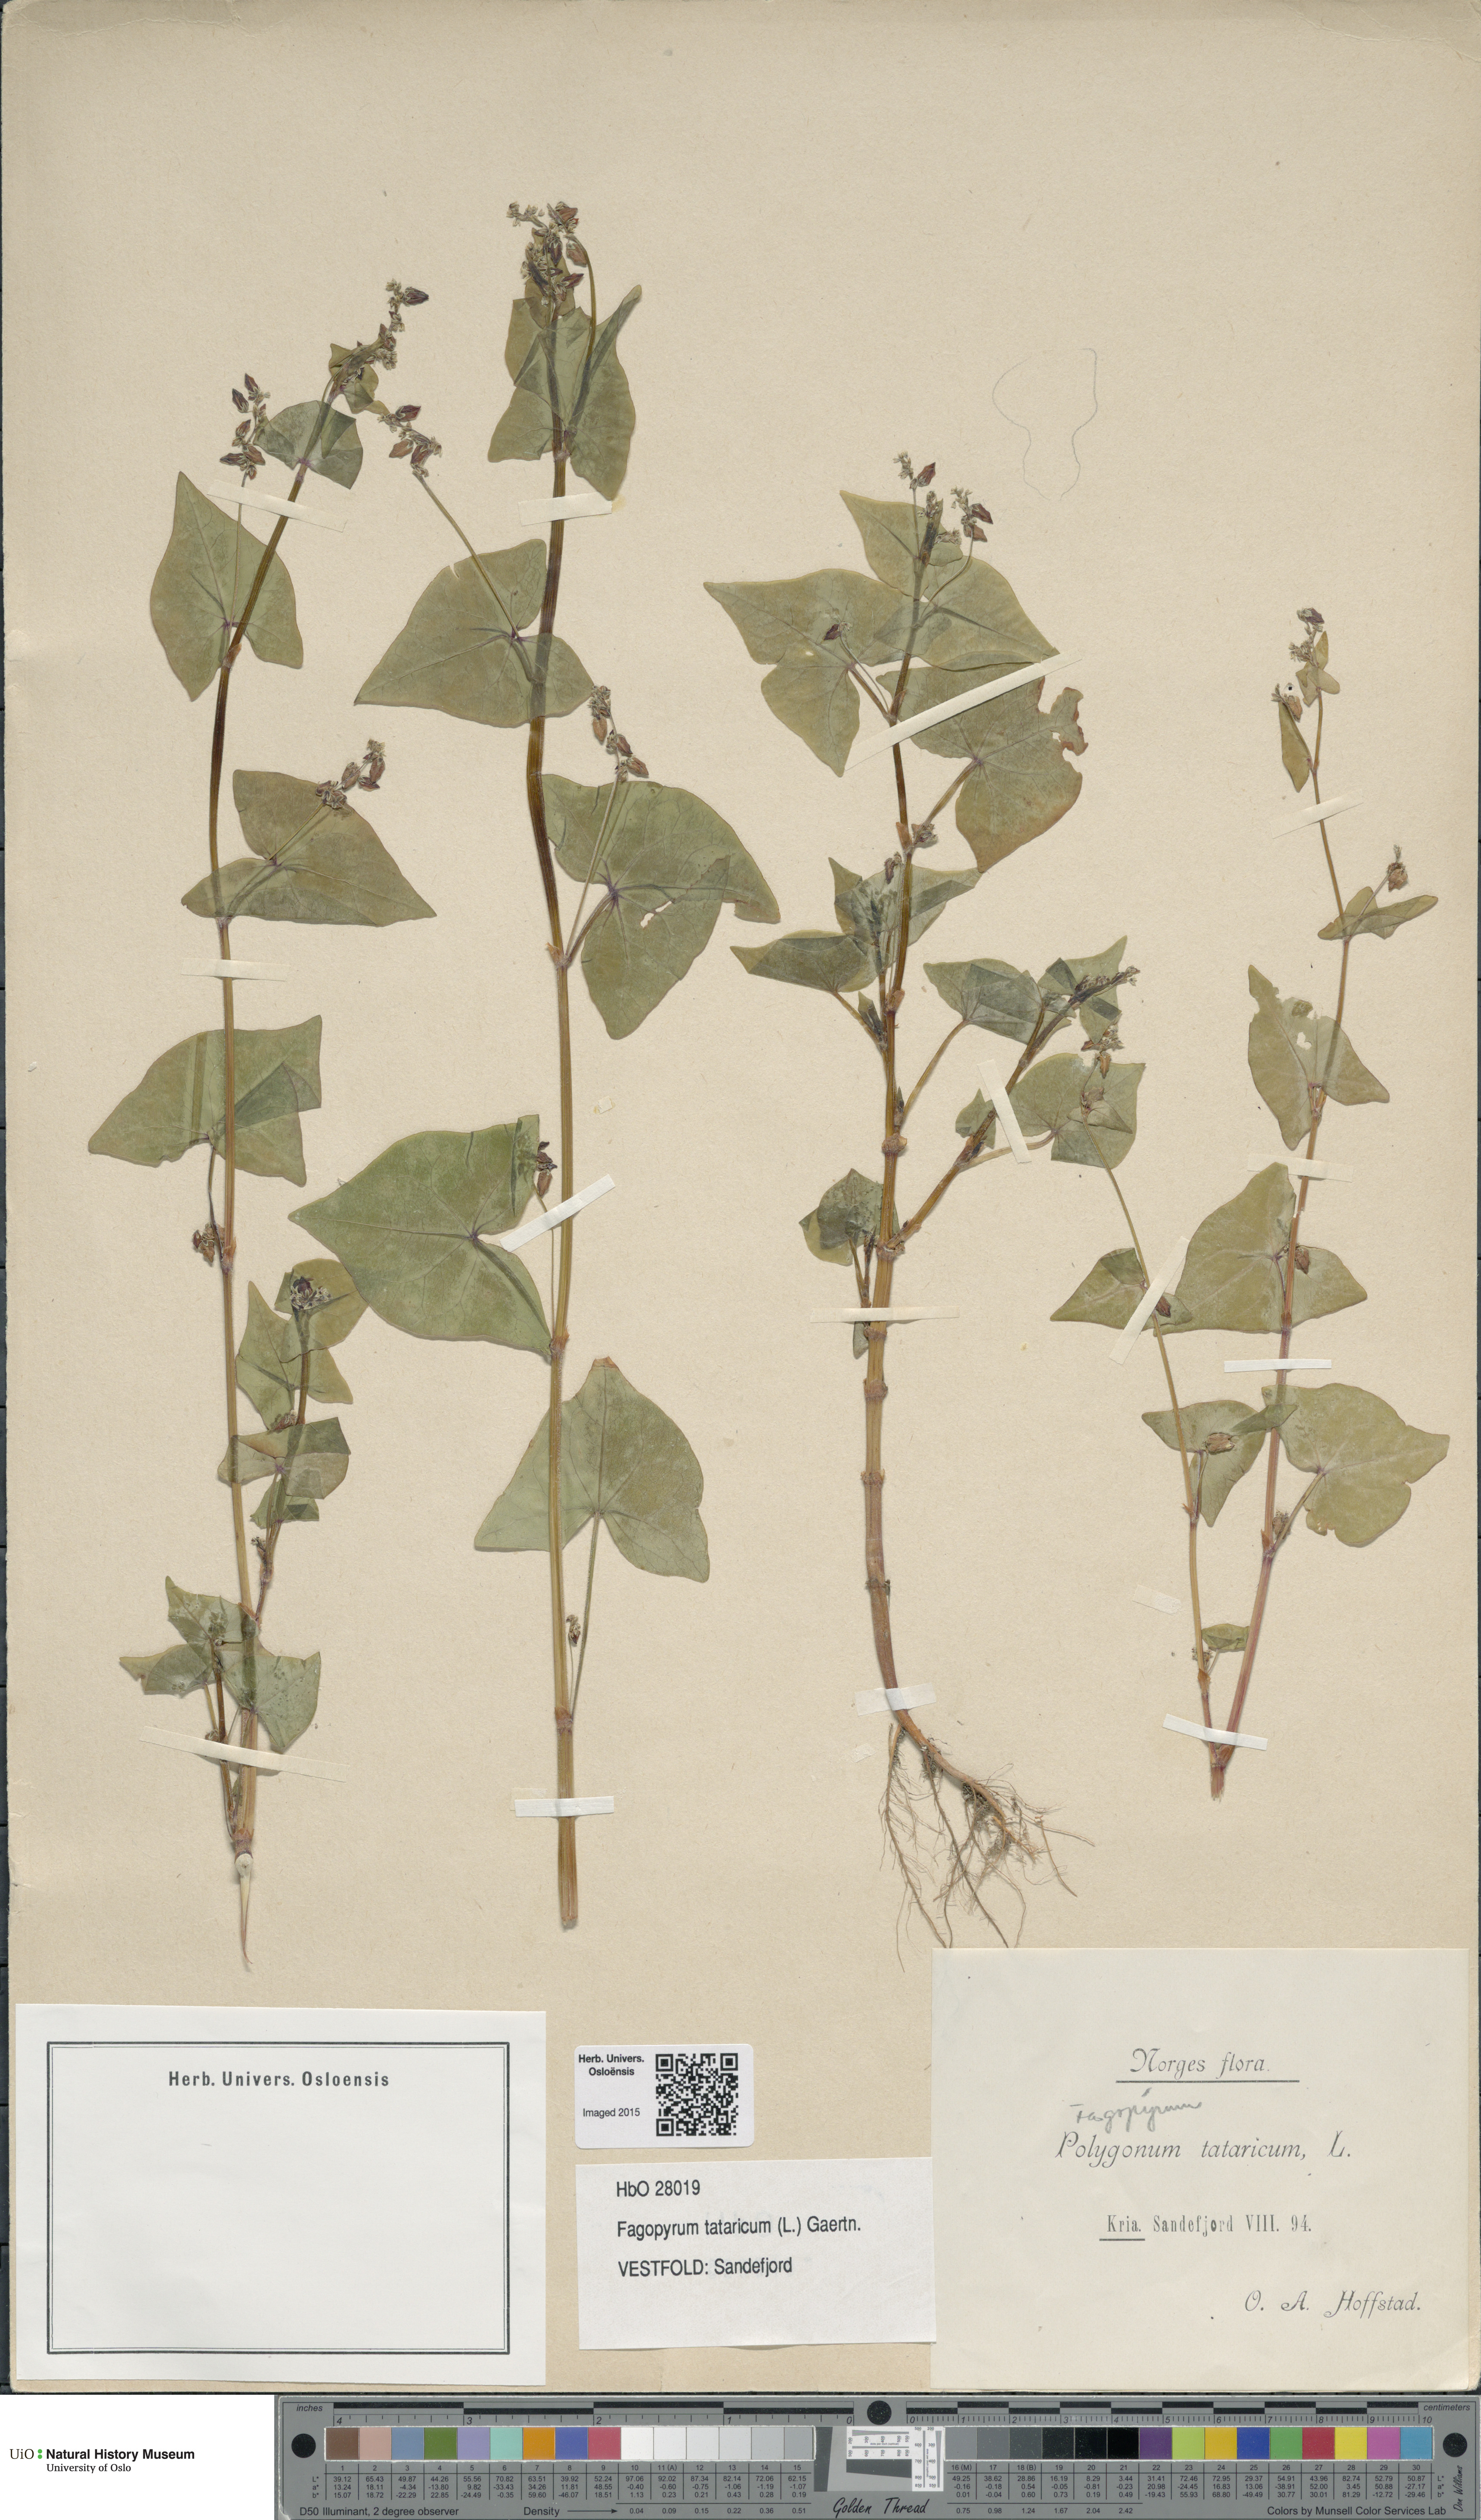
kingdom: Plantae
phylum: Tracheophyta
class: Magnoliopsida
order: Caryophyllales
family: Polygonaceae
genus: Fagopyrum
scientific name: Fagopyrum tataricum
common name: Green buckwheat
